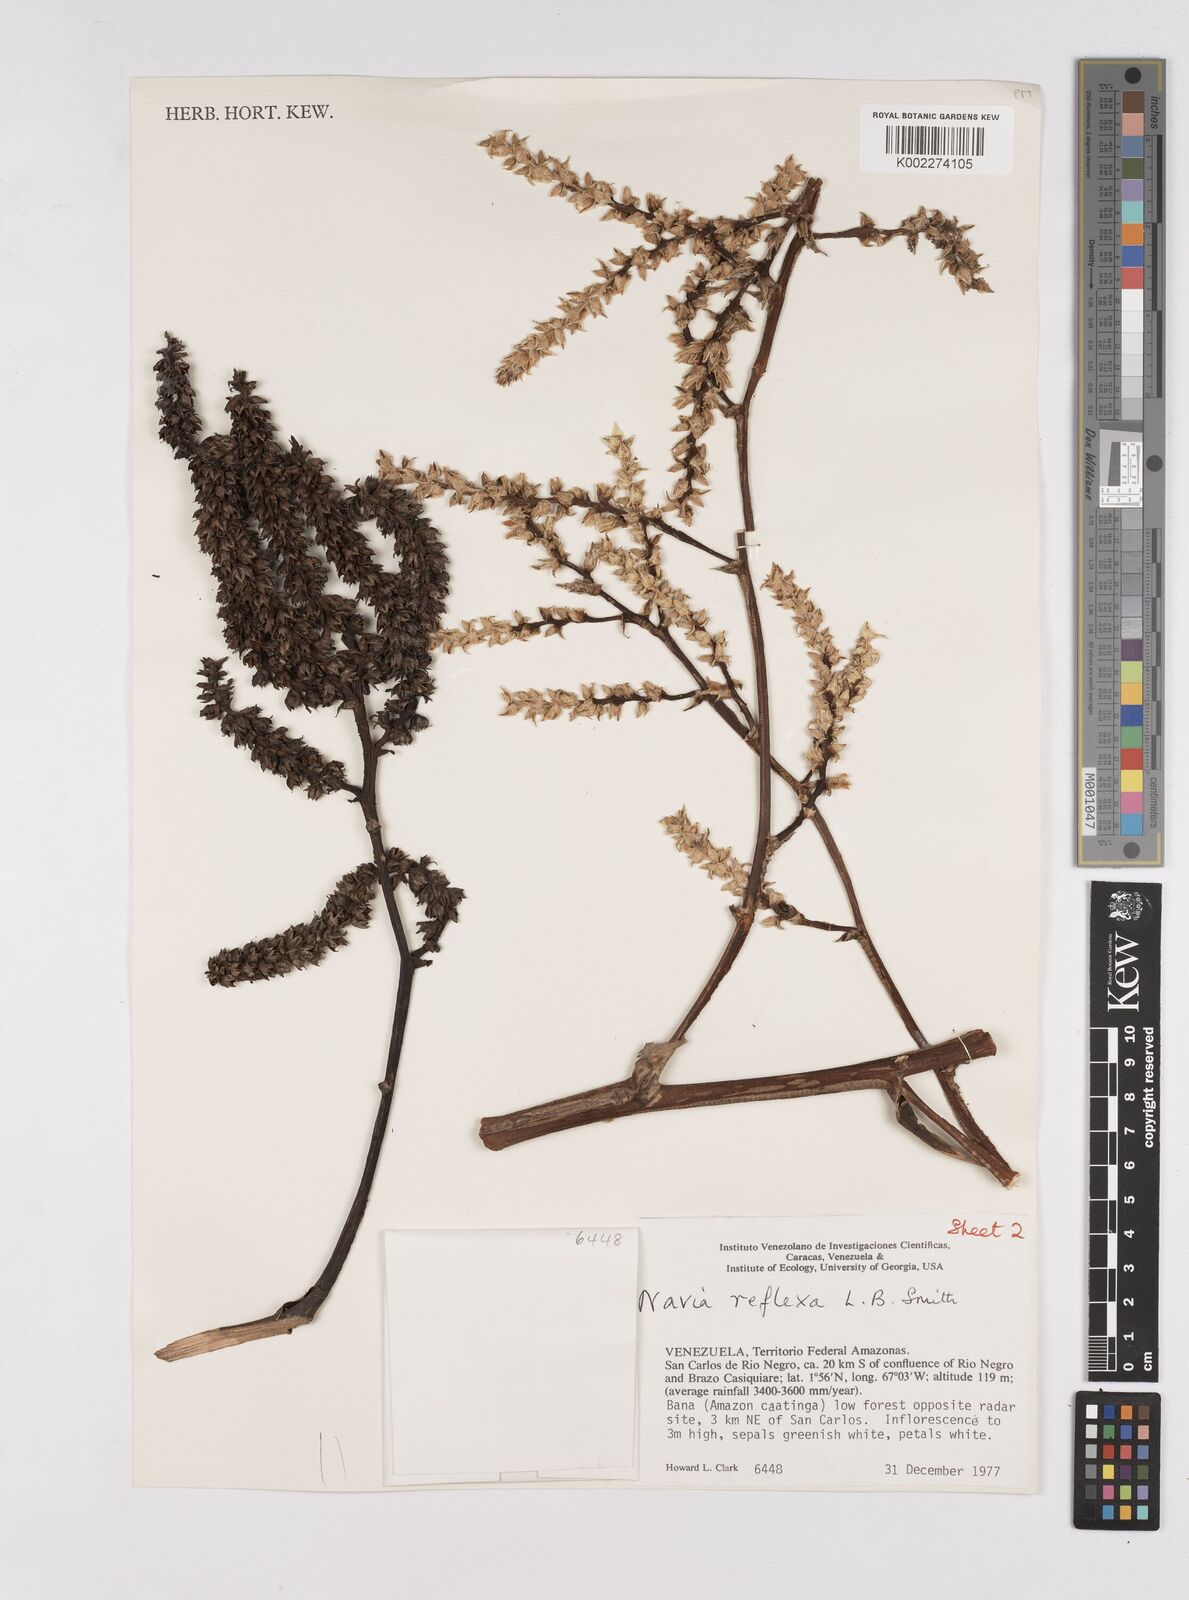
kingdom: Plantae
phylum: Tracheophyta
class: Liliopsida
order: Poales
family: Bromeliaceae
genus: Navia
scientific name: Navia reflexa
